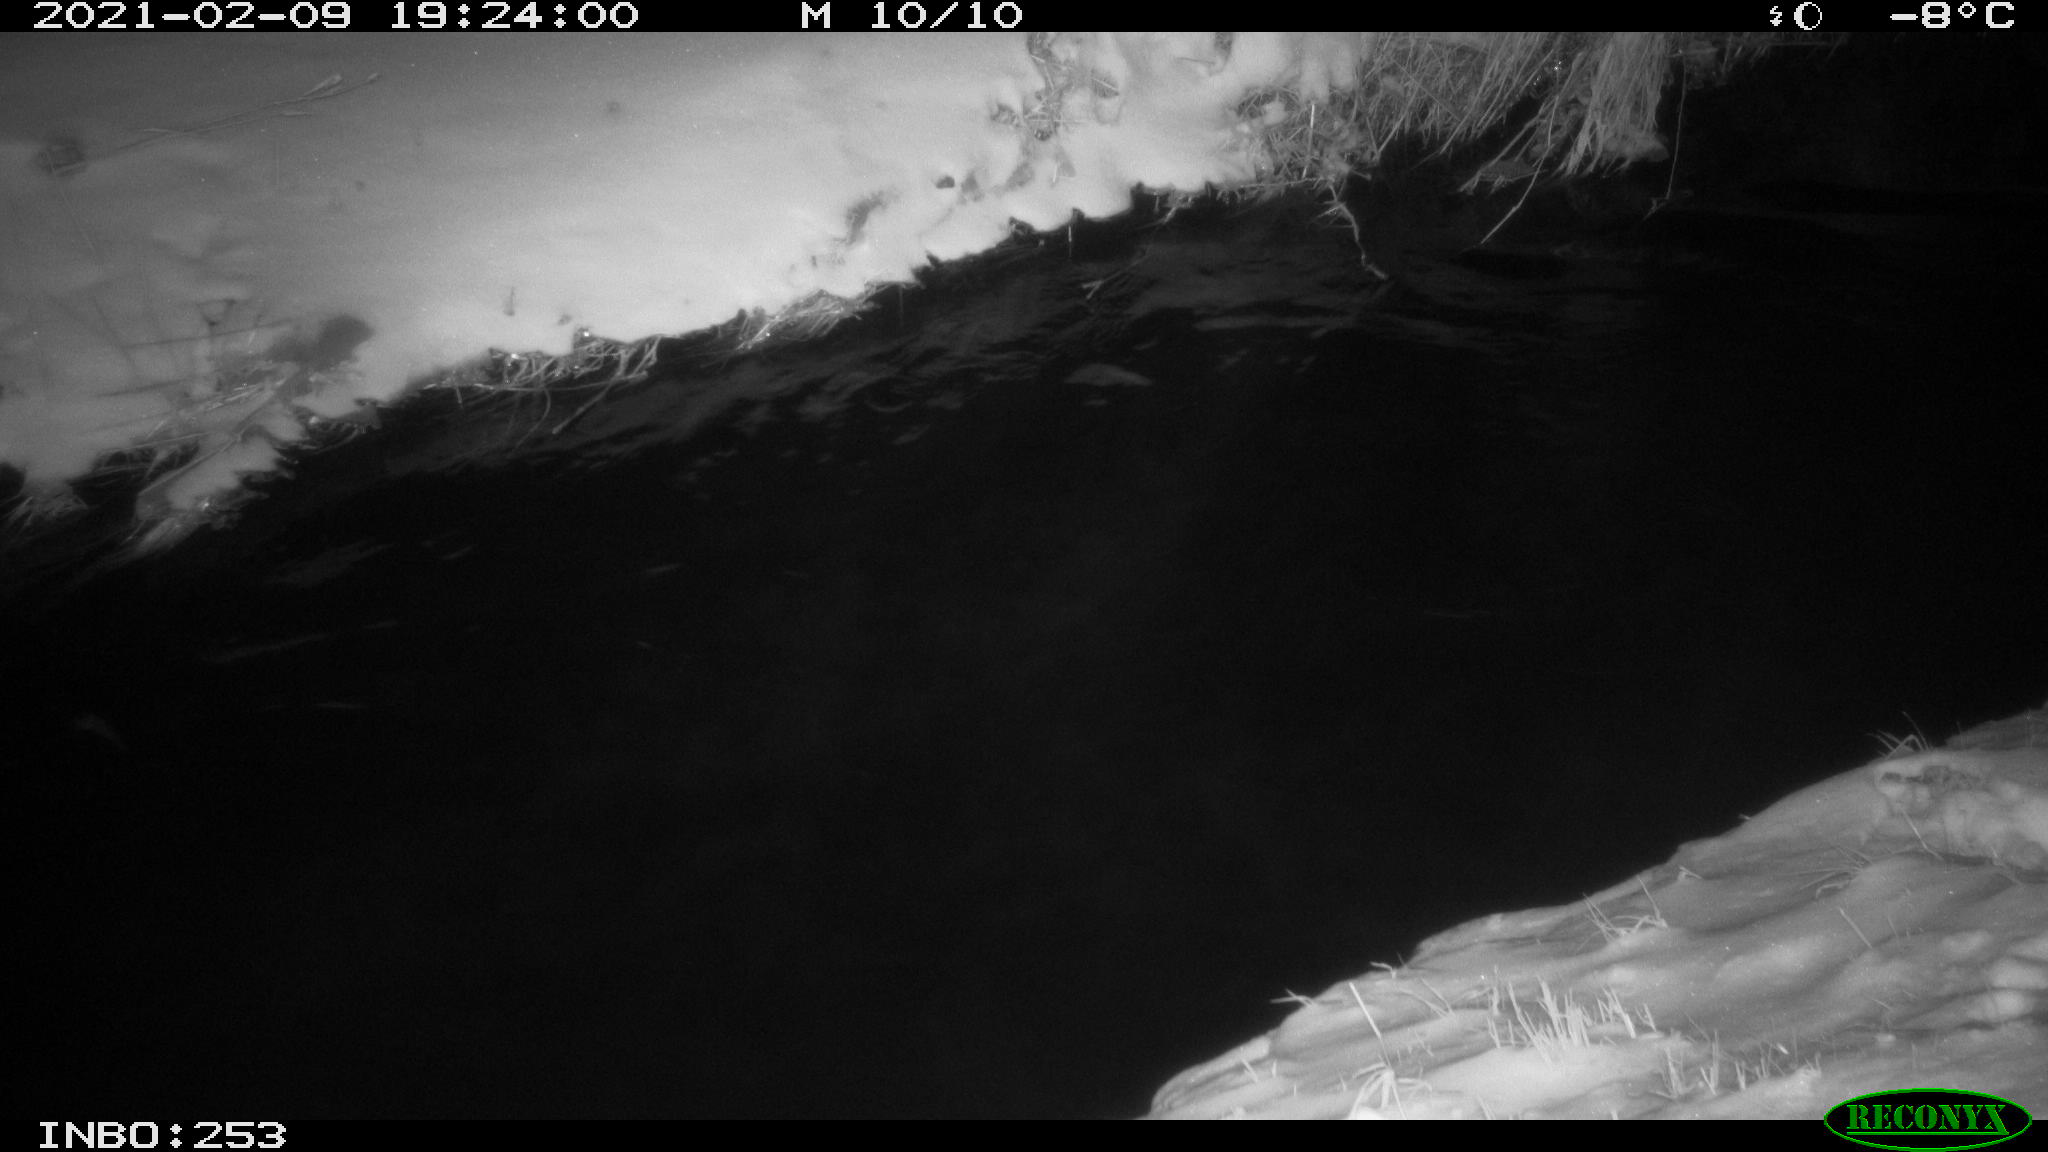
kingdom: Animalia
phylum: Chordata
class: Aves
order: Anseriformes
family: Anatidae
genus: Anas
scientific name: Anas platyrhynchos
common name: Mallard
